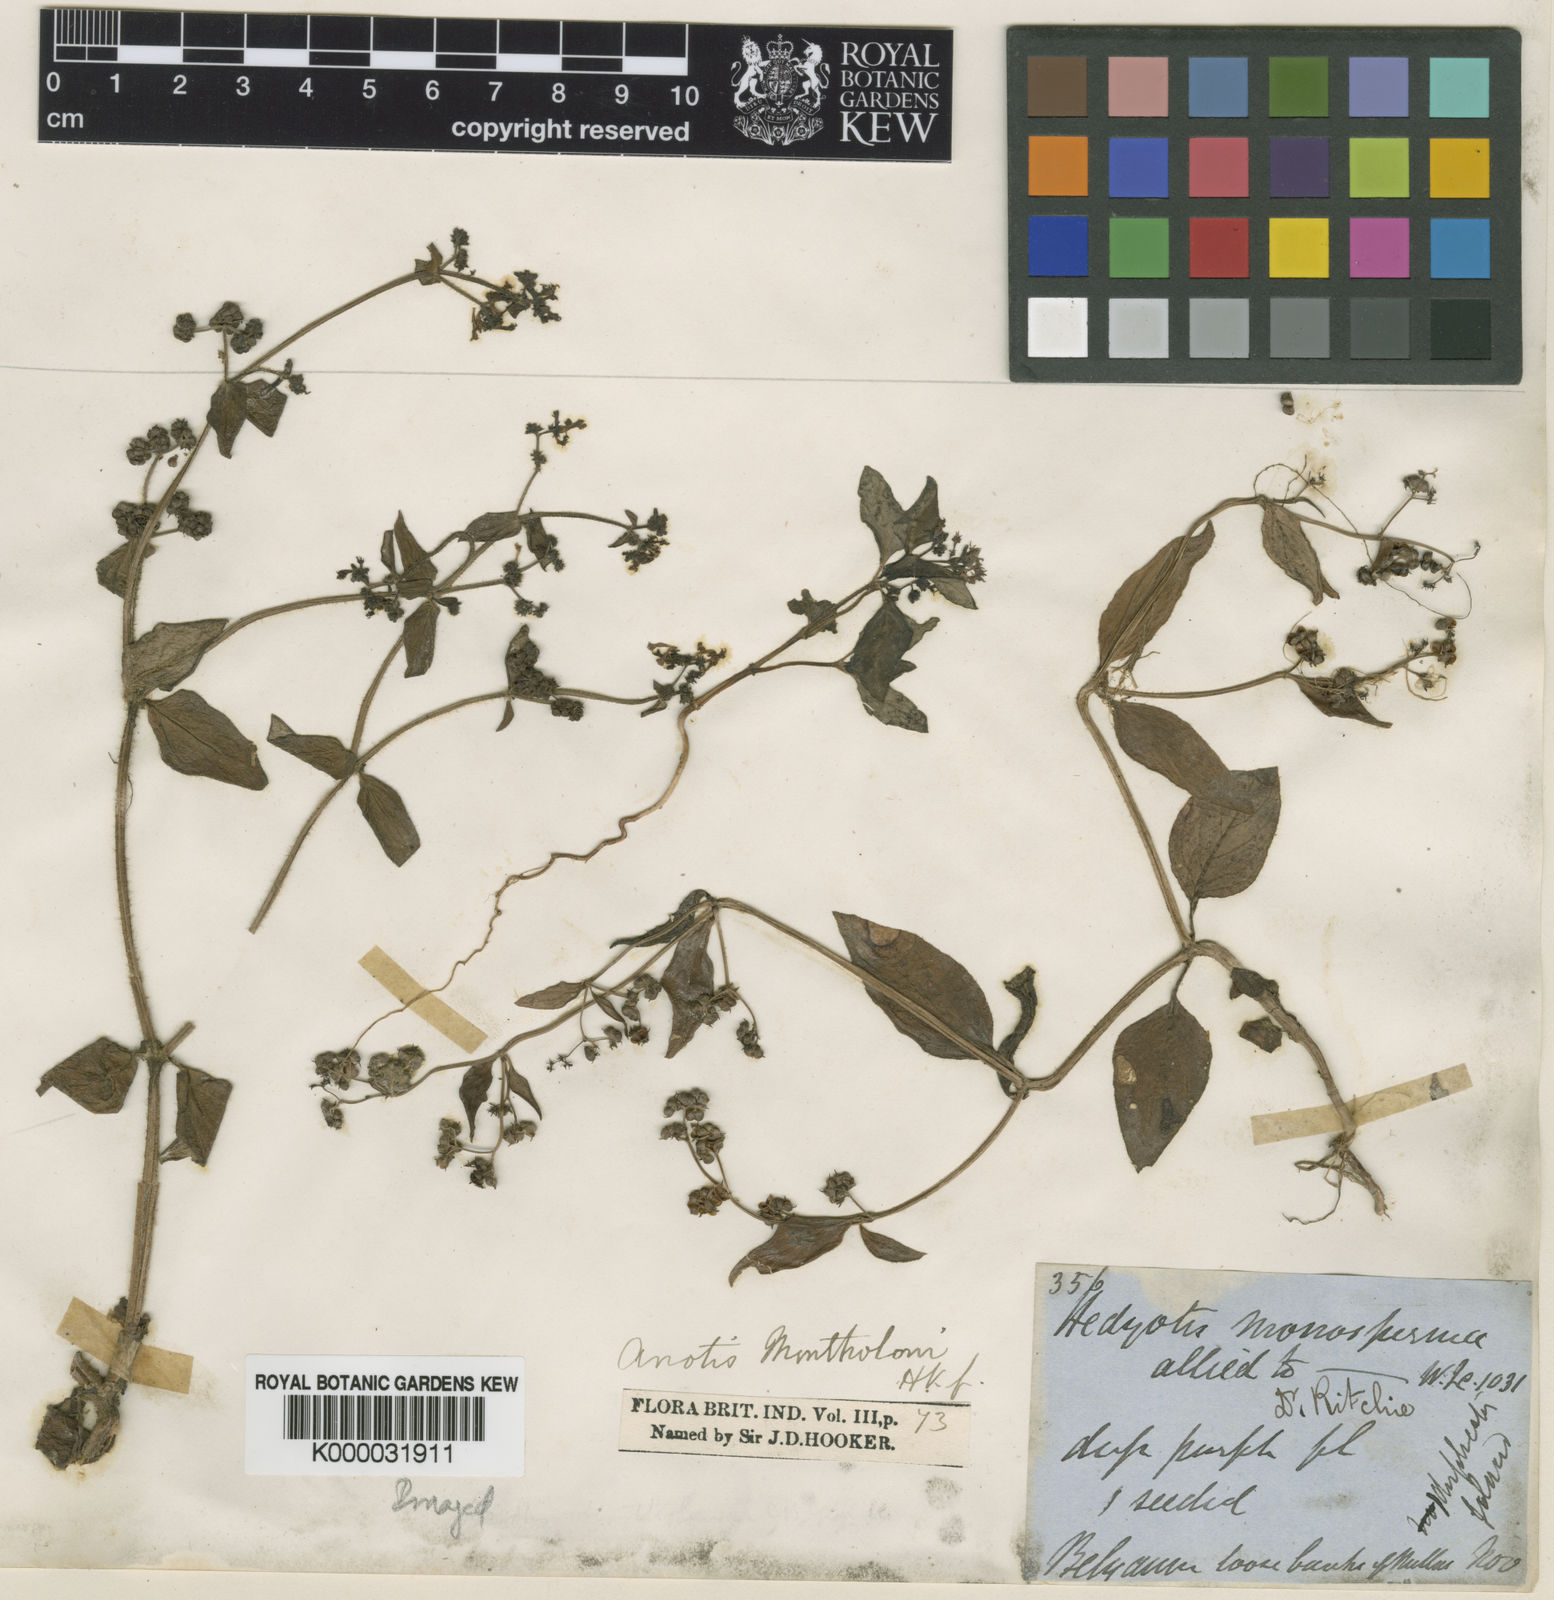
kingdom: Plantae
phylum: Tracheophyta
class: Magnoliopsida
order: Gentianales
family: Rubiaceae
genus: Neanotis
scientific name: Neanotis rheedei
